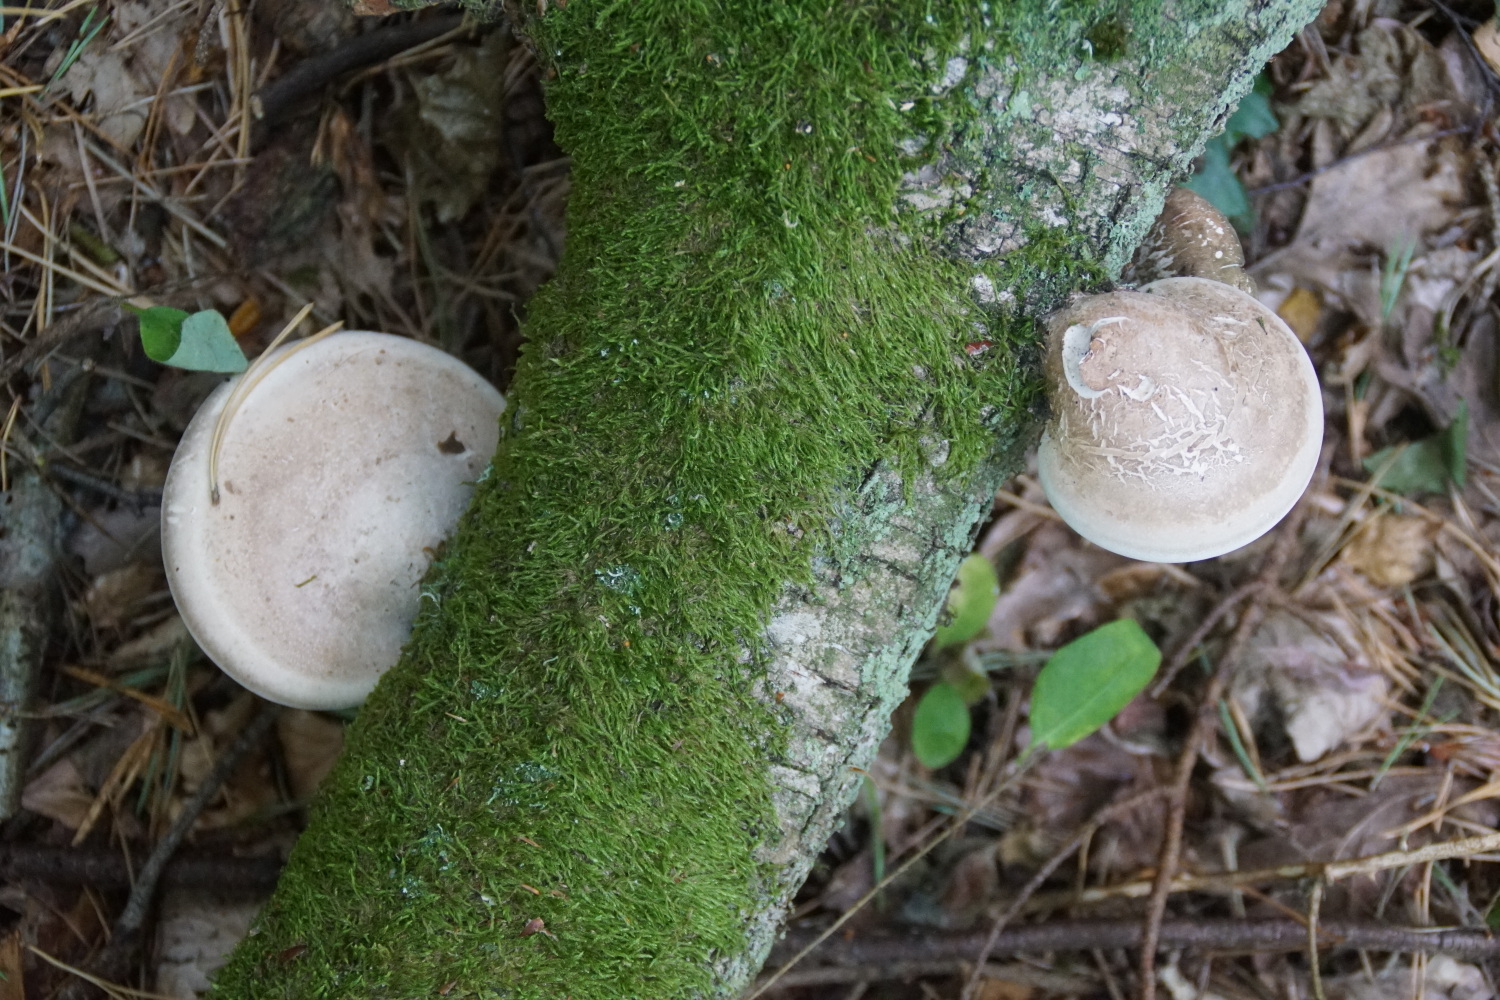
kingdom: Fungi
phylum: Basidiomycota
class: Agaricomycetes
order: Polyporales
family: Fomitopsidaceae
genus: Fomitopsis
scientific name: Fomitopsis betulina
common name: birkeporesvamp
